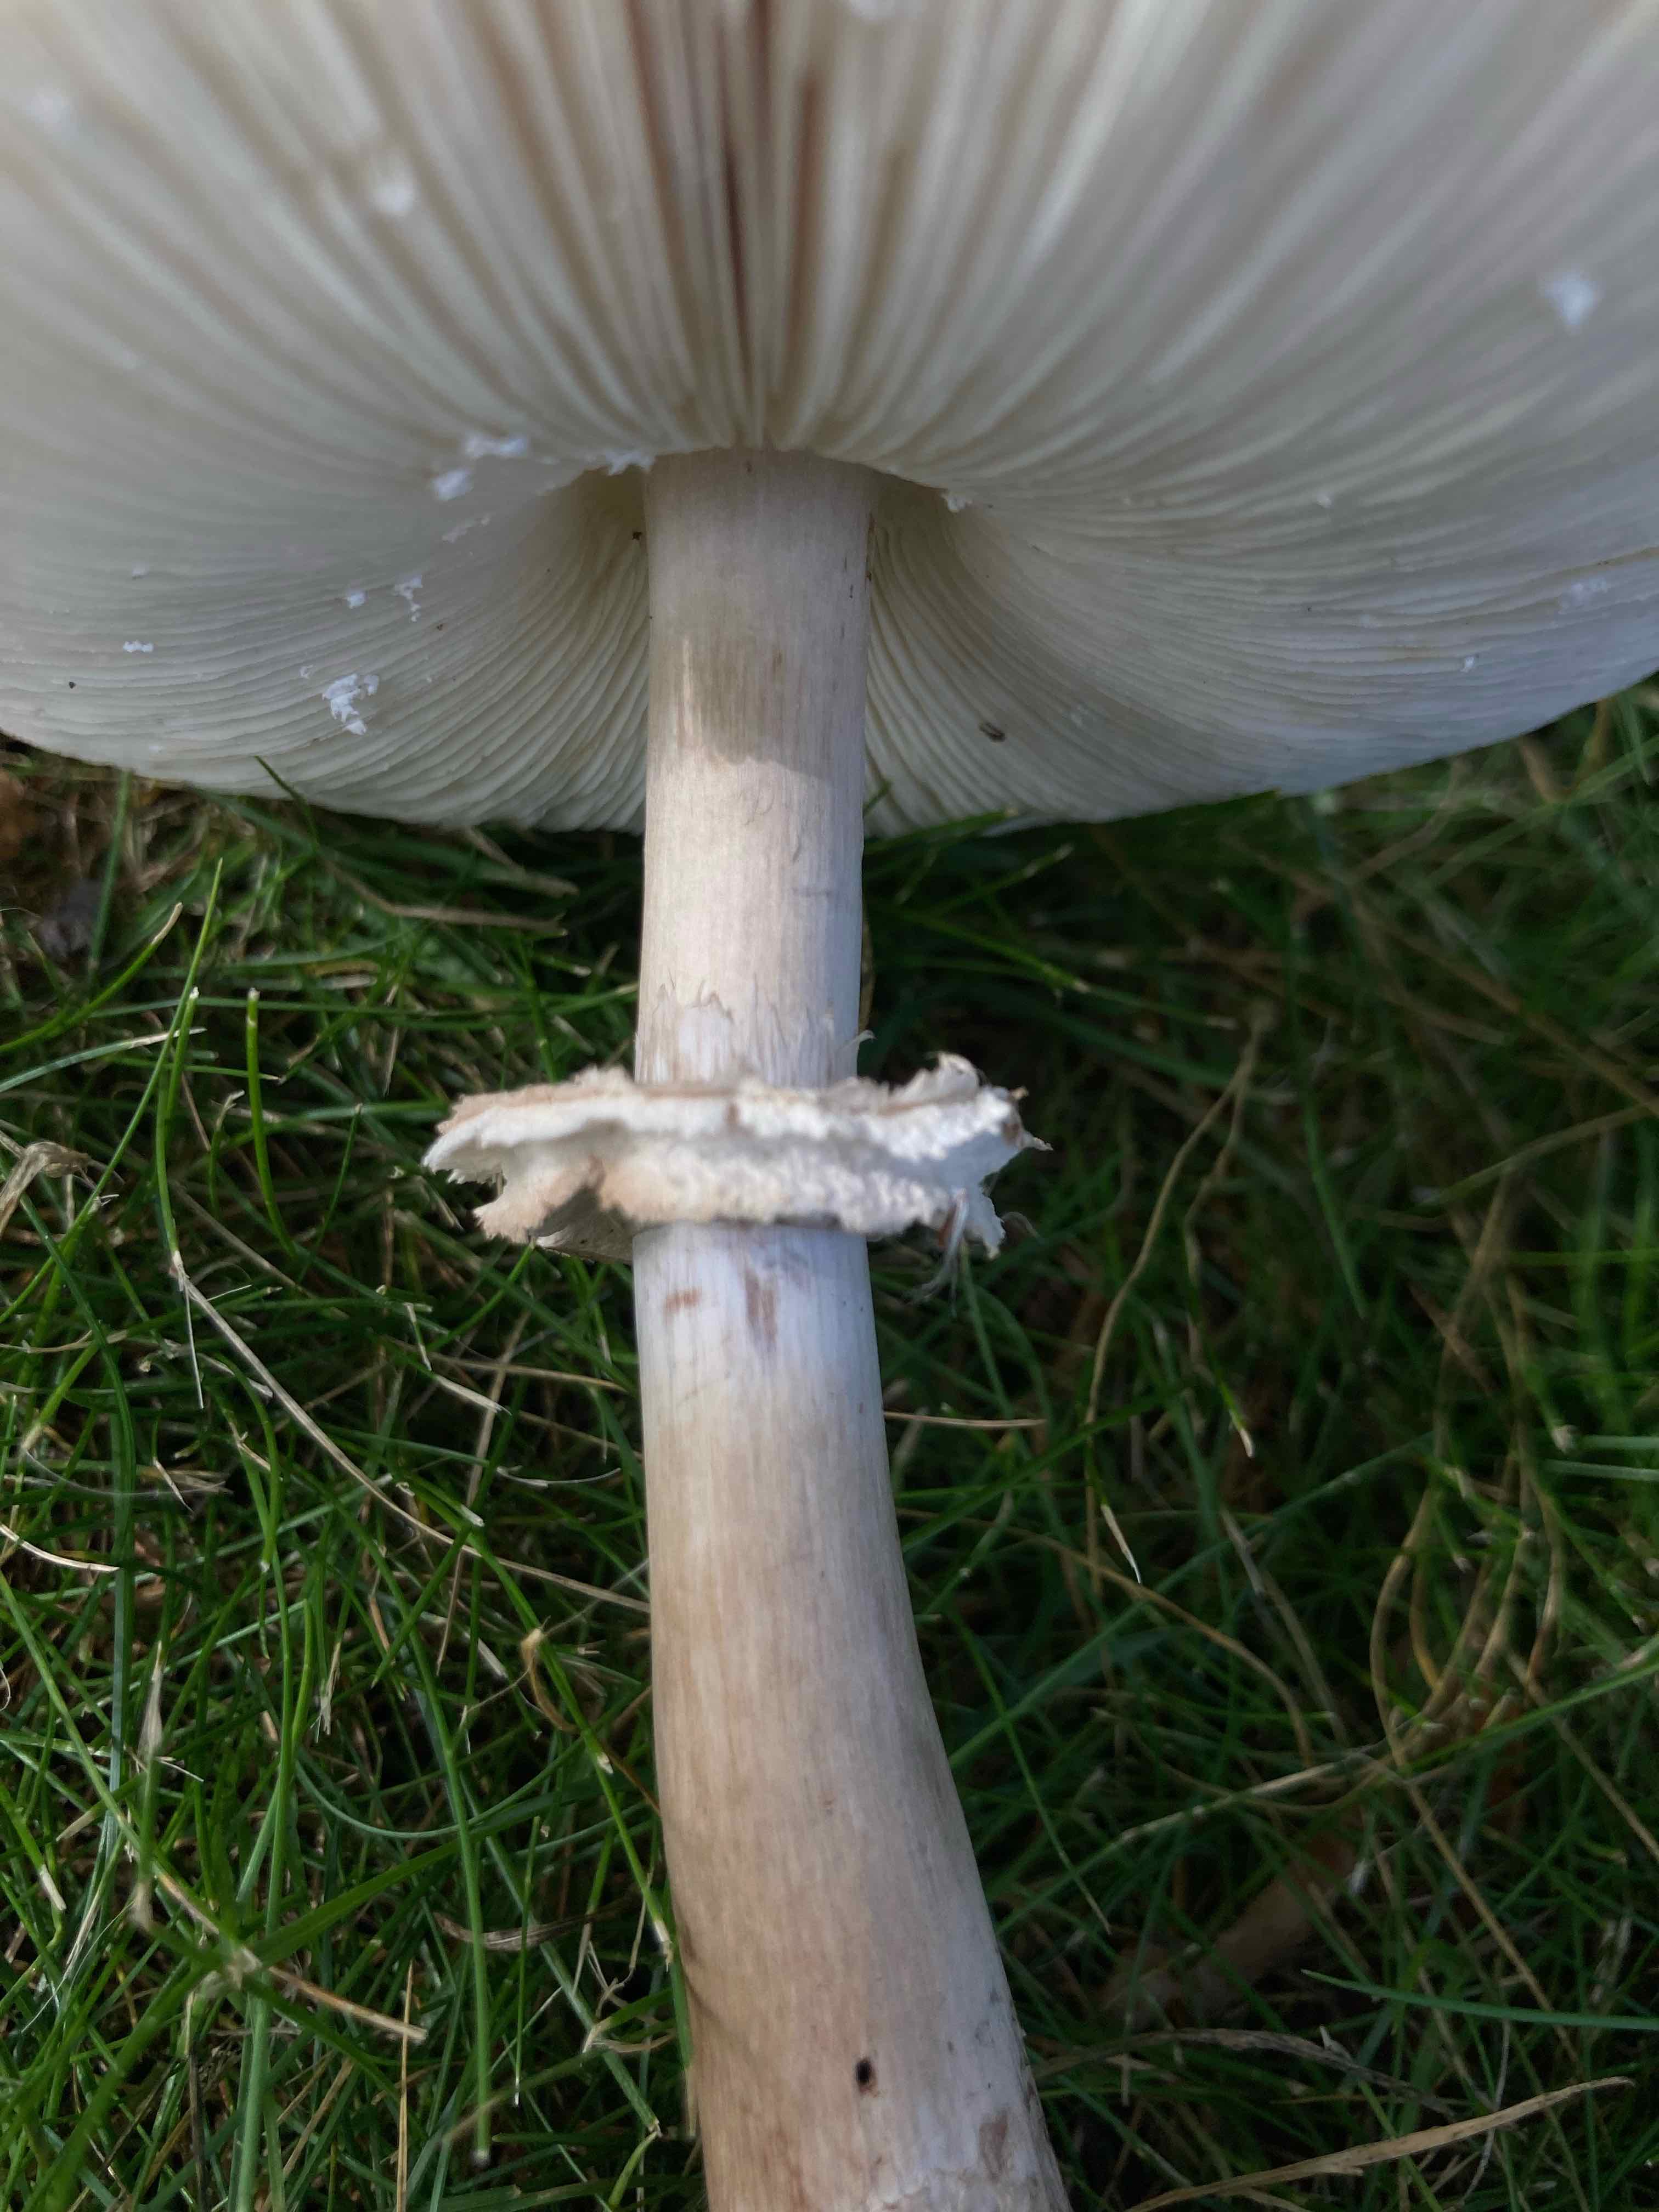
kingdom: Fungi
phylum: Basidiomycota
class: Agaricomycetes
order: Agaricales
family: Agaricaceae
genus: Chlorophyllum
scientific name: Chlorophyllum rhacodes
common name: ægte rabarberhat
